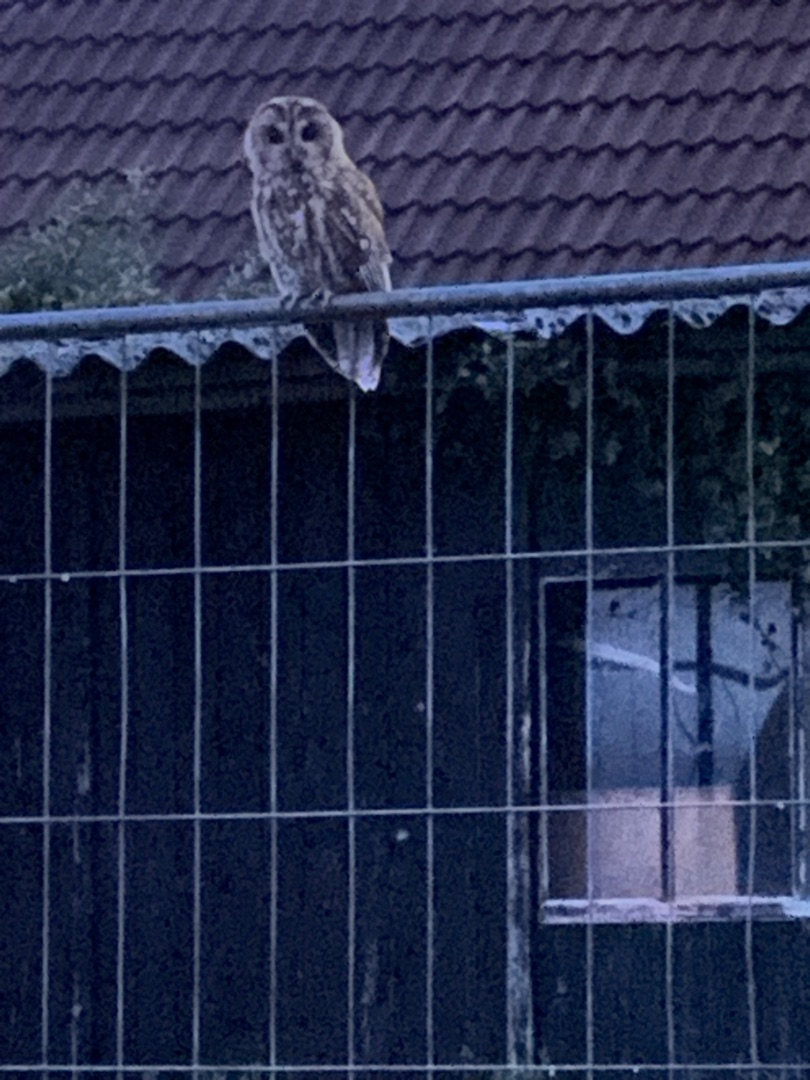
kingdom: Animalia
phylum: Chordata
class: Aves
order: Strigiformes
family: Strigidae
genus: Strix
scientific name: Strix aluco
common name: Natugle
